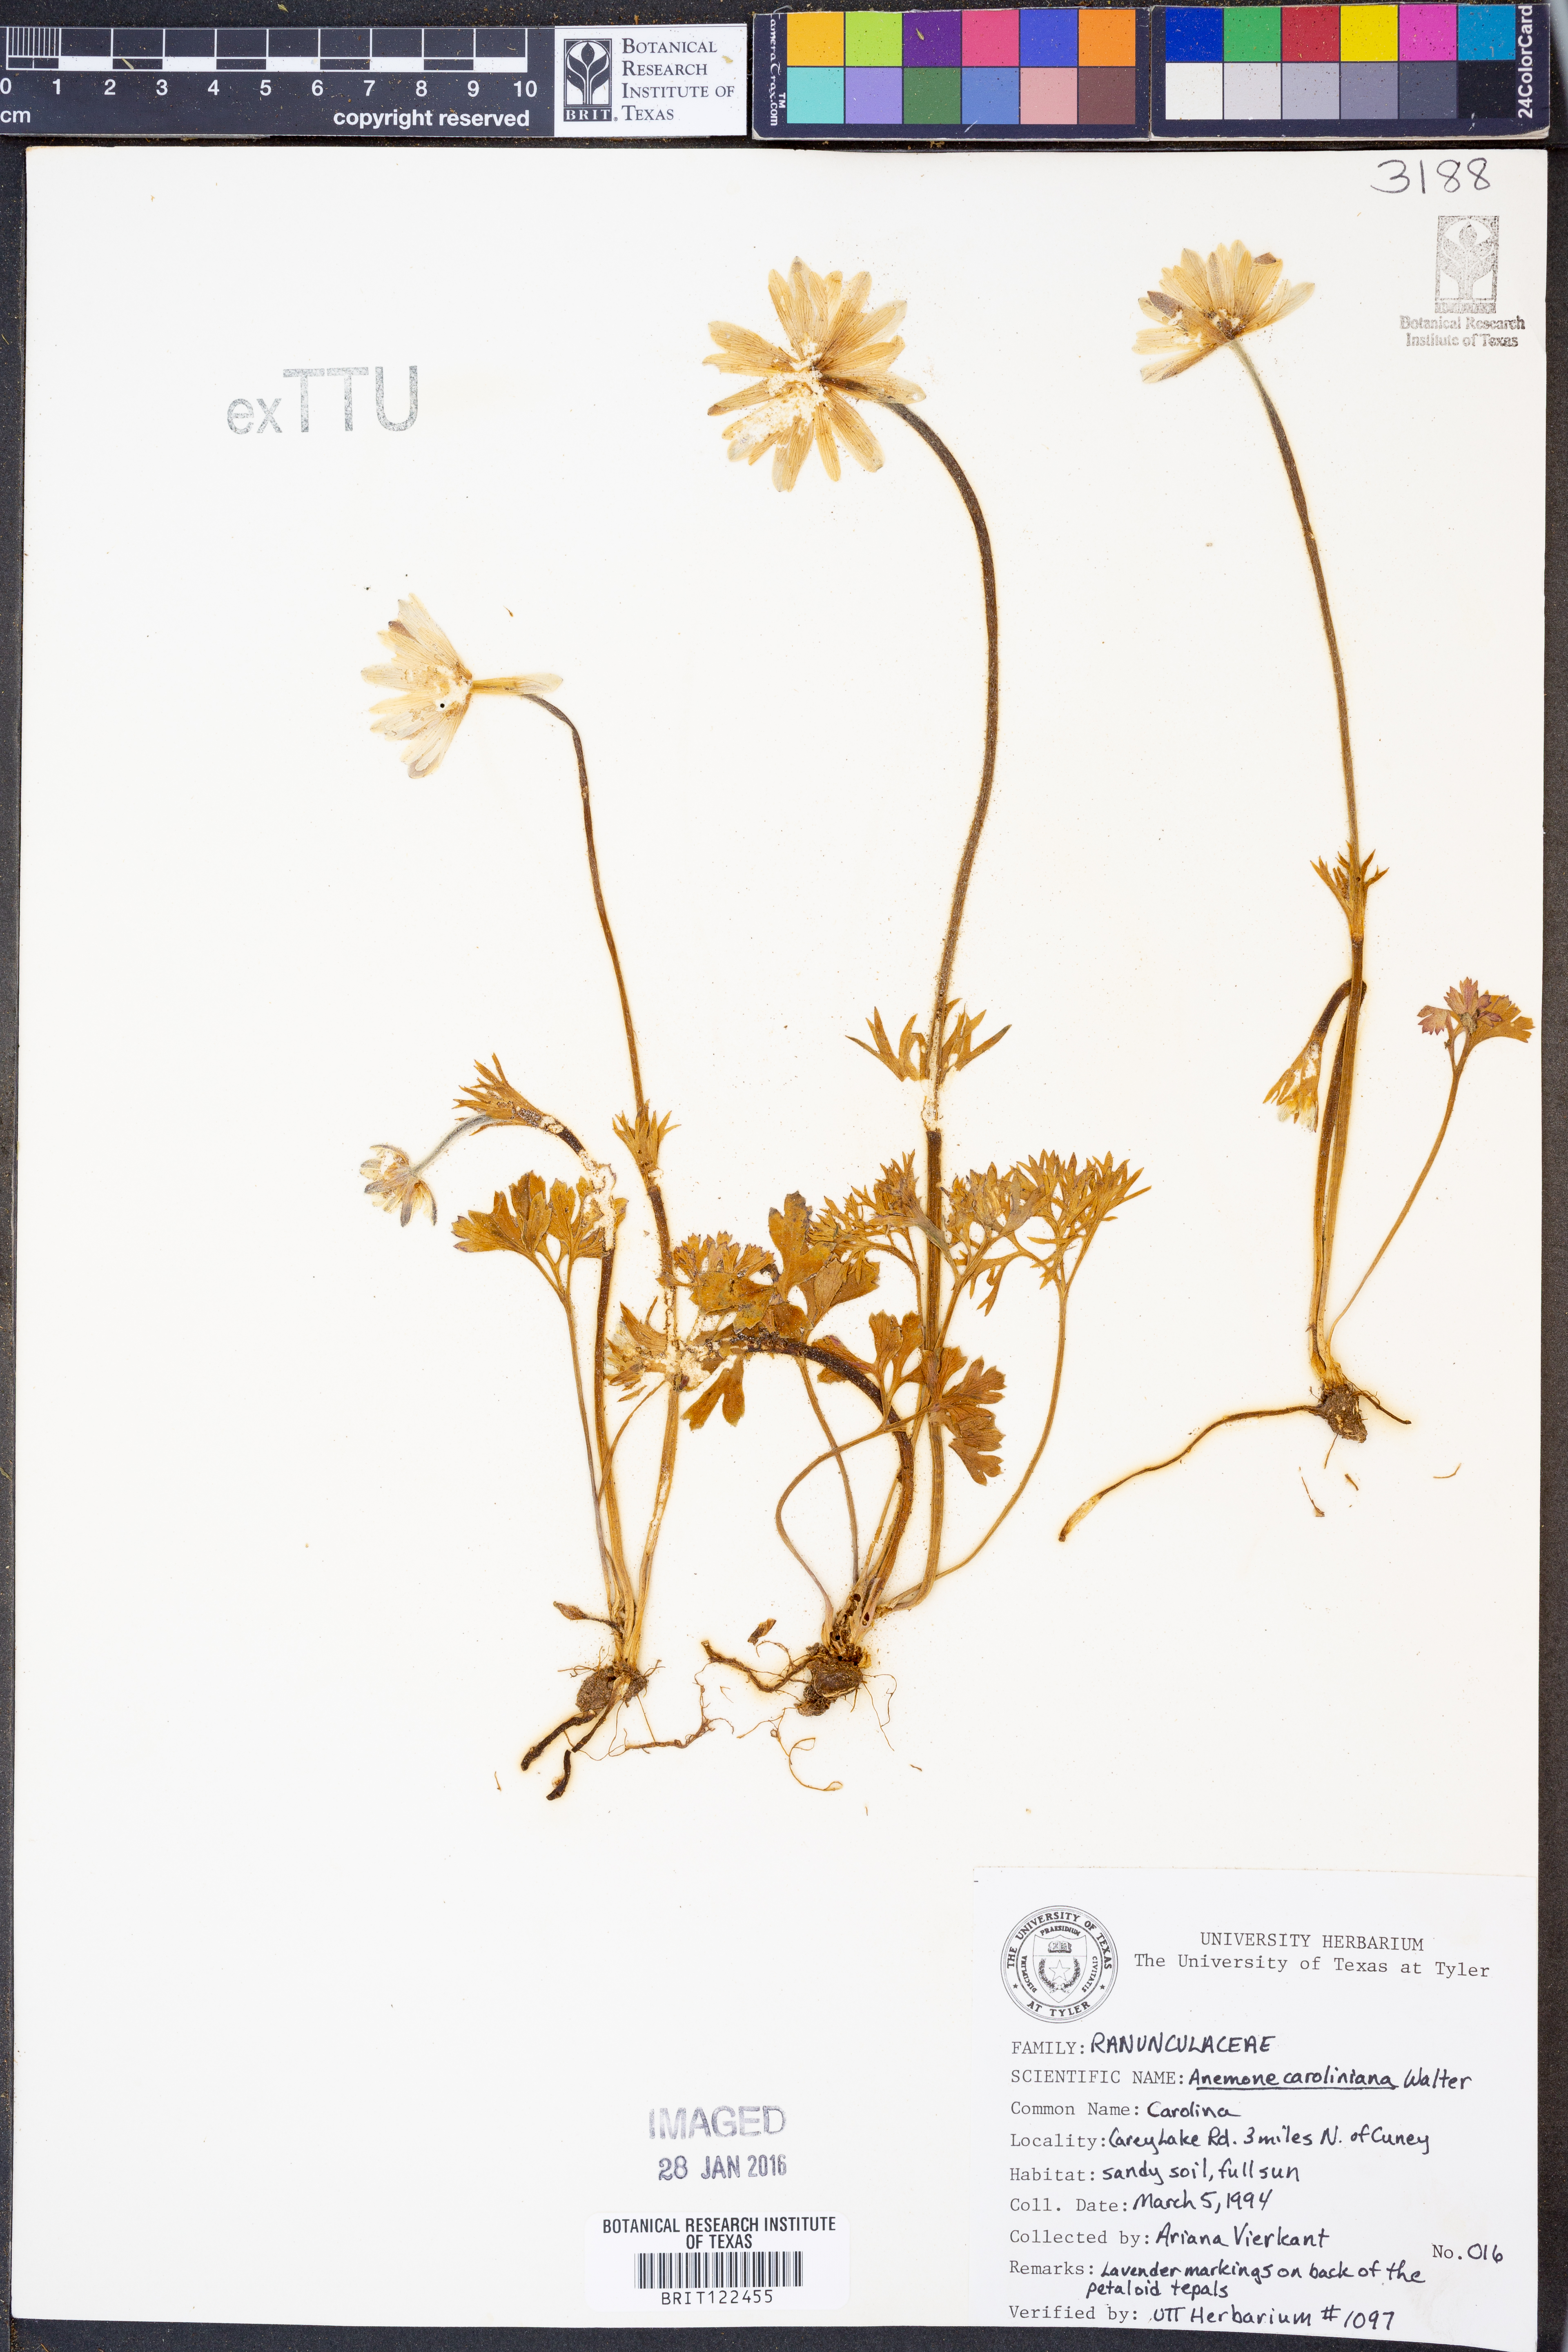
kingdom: Plantae
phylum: Tracheophyta
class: Magnoliopsida
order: Ranunculales
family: Ranunculaceae
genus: Anemone
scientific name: Anemone caroliniana
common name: Carolina anemone
